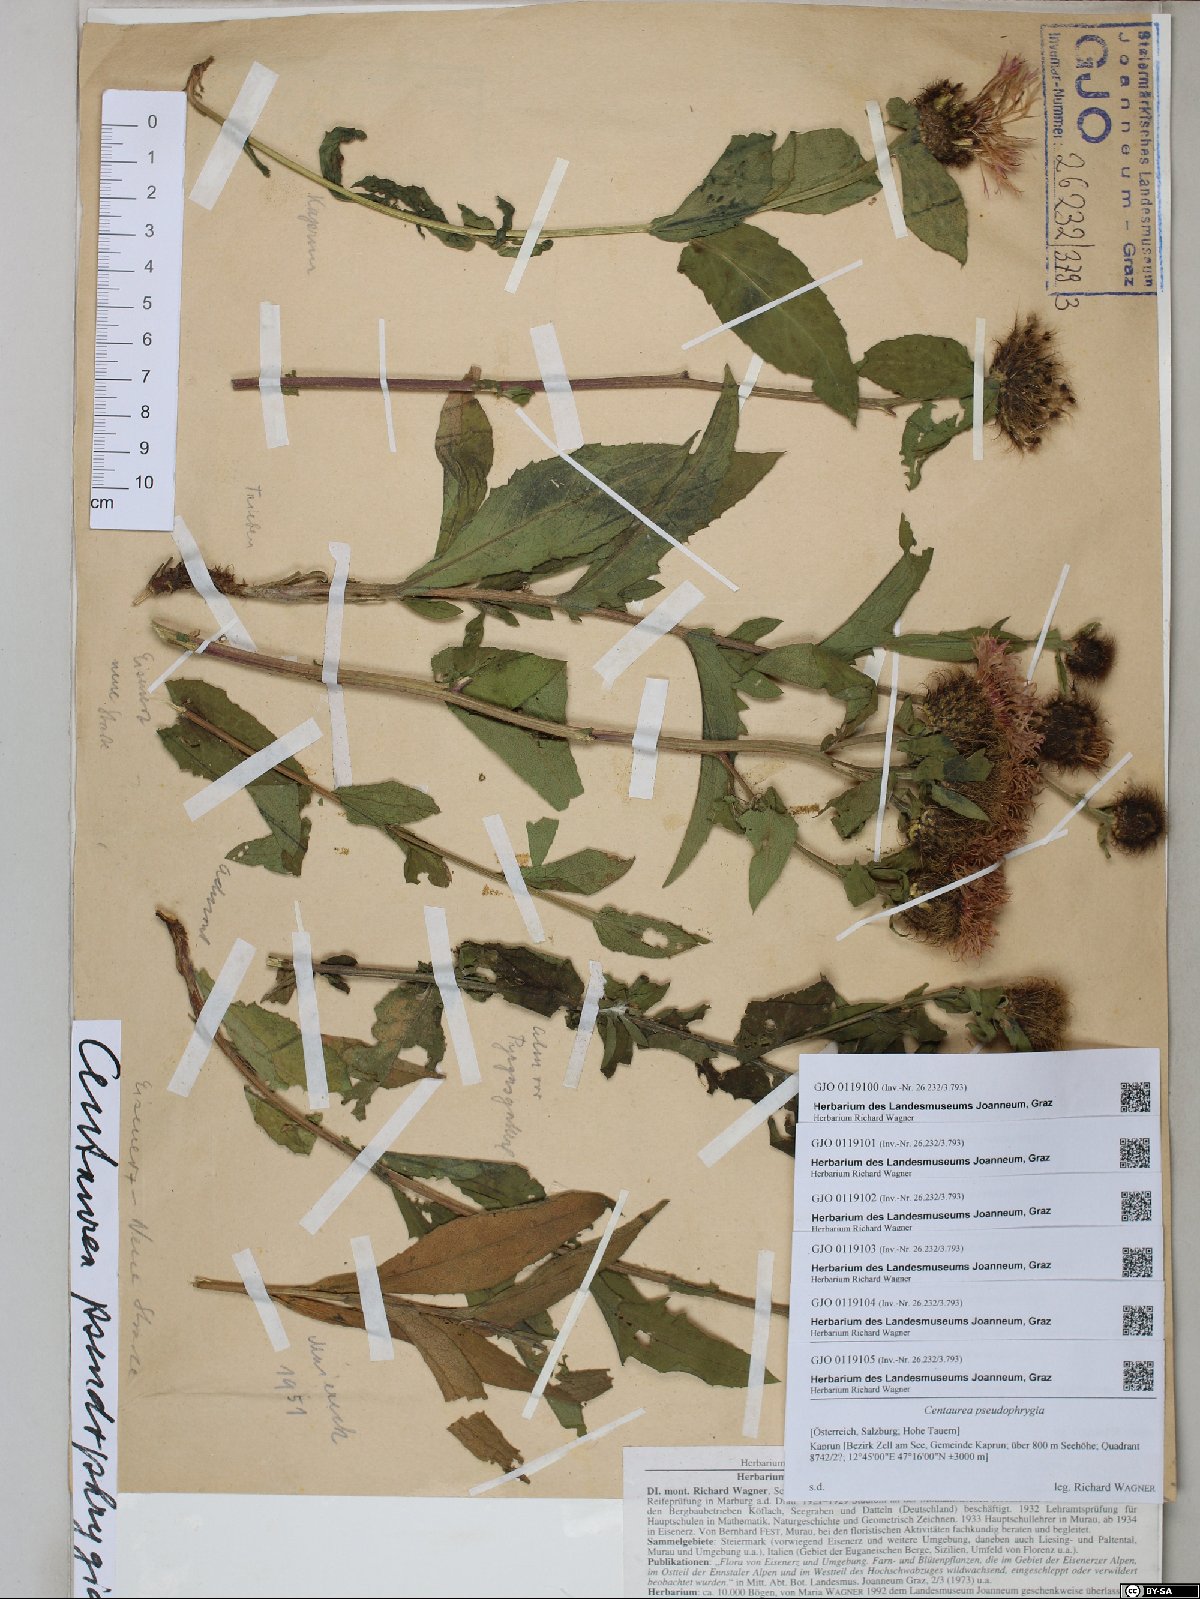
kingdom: Plantae
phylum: Tracheophyta
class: Magnoliopsida
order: Asterales
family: Asteraceae
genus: Centaurea
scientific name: Centaurea pseudophrygia
